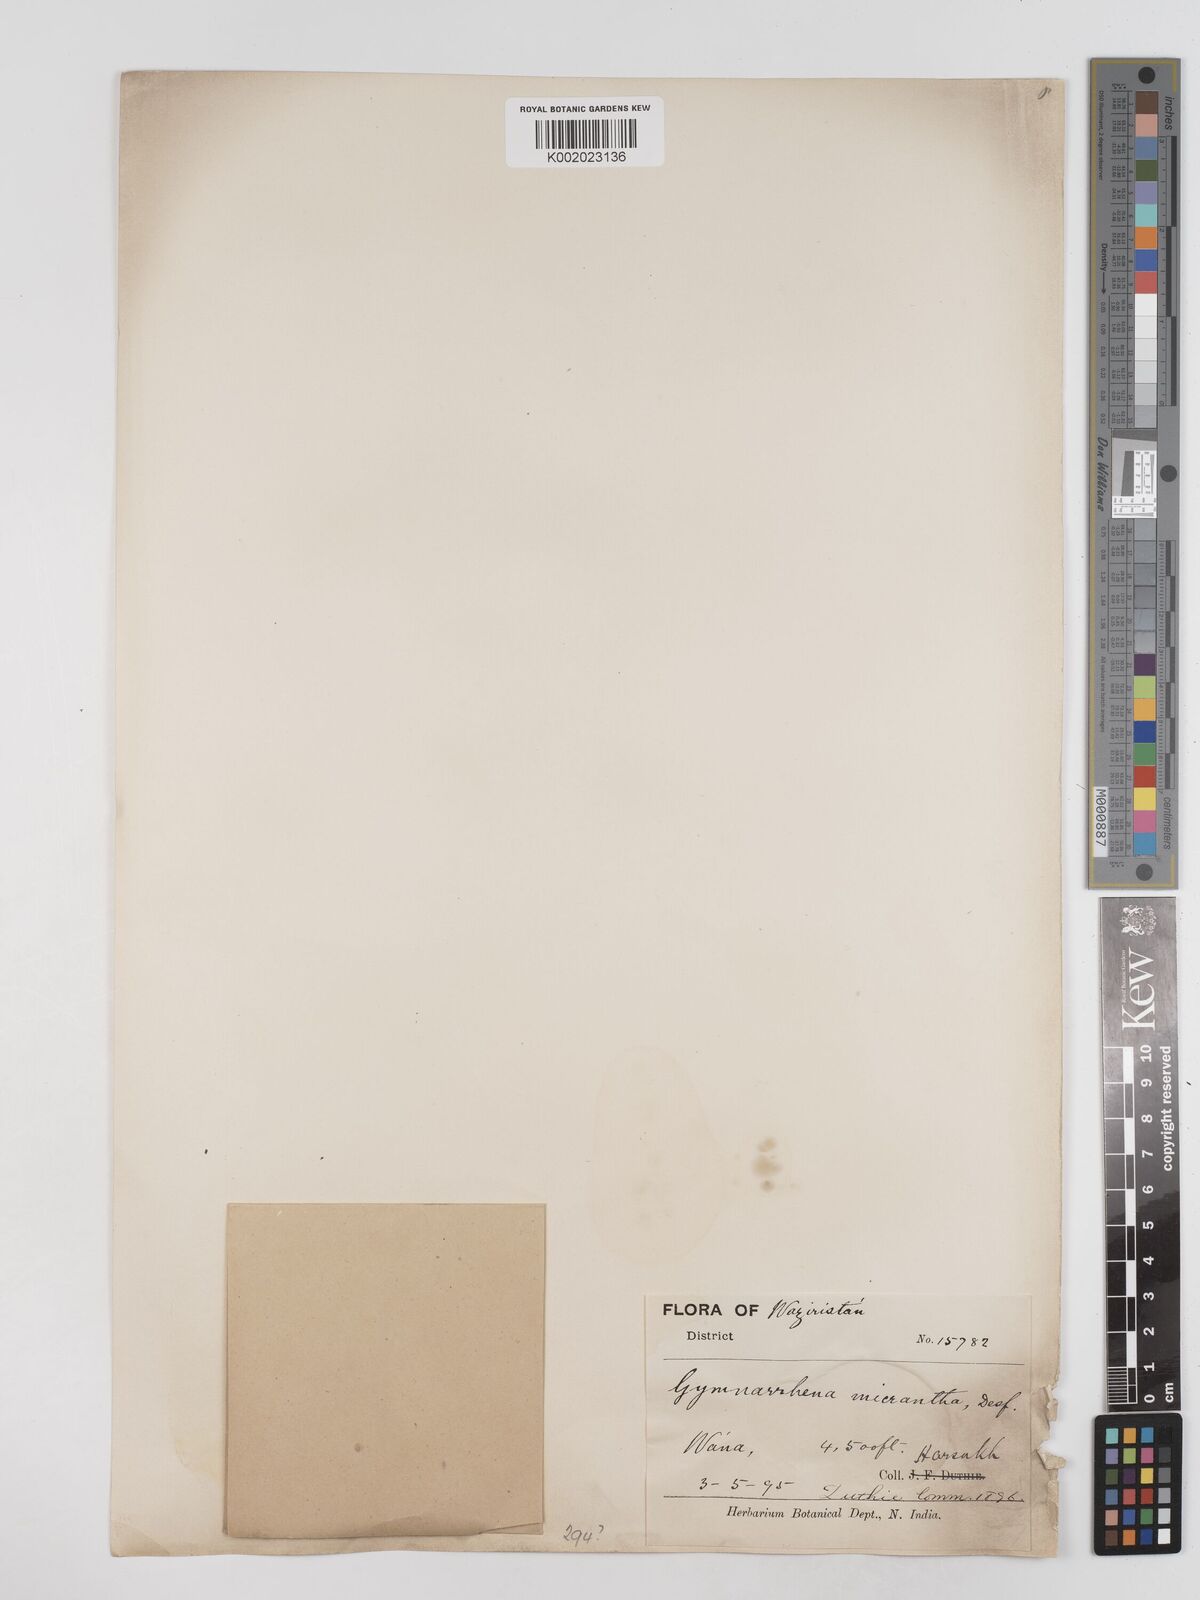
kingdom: Plantae
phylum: Tracheophyta
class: Magnoliopsida
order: Asterales
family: Asteraceae
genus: Gymnarrhena
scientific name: Gymnarrhena micrantha
